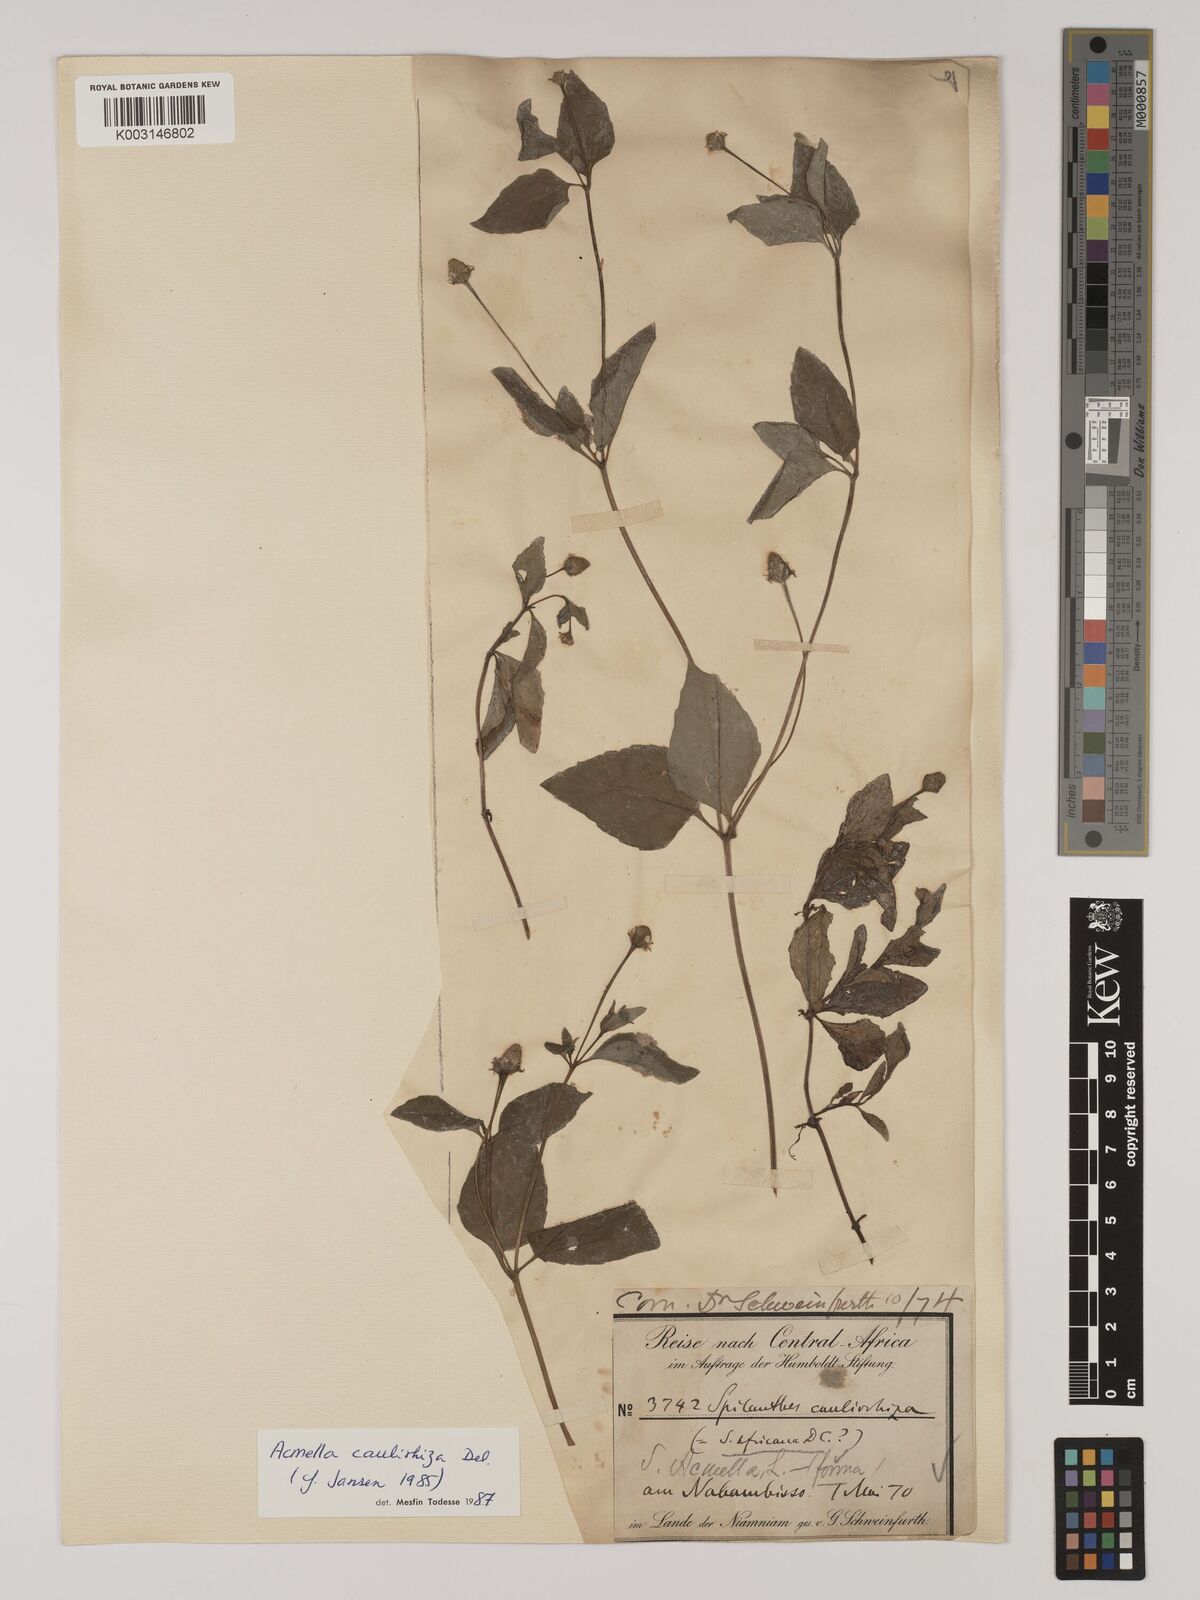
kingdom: Plantae
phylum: Tracheophyta
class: Magnoliopsida
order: Asterales
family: Asteraceae
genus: Acmella
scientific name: Acmella caulirhiza
